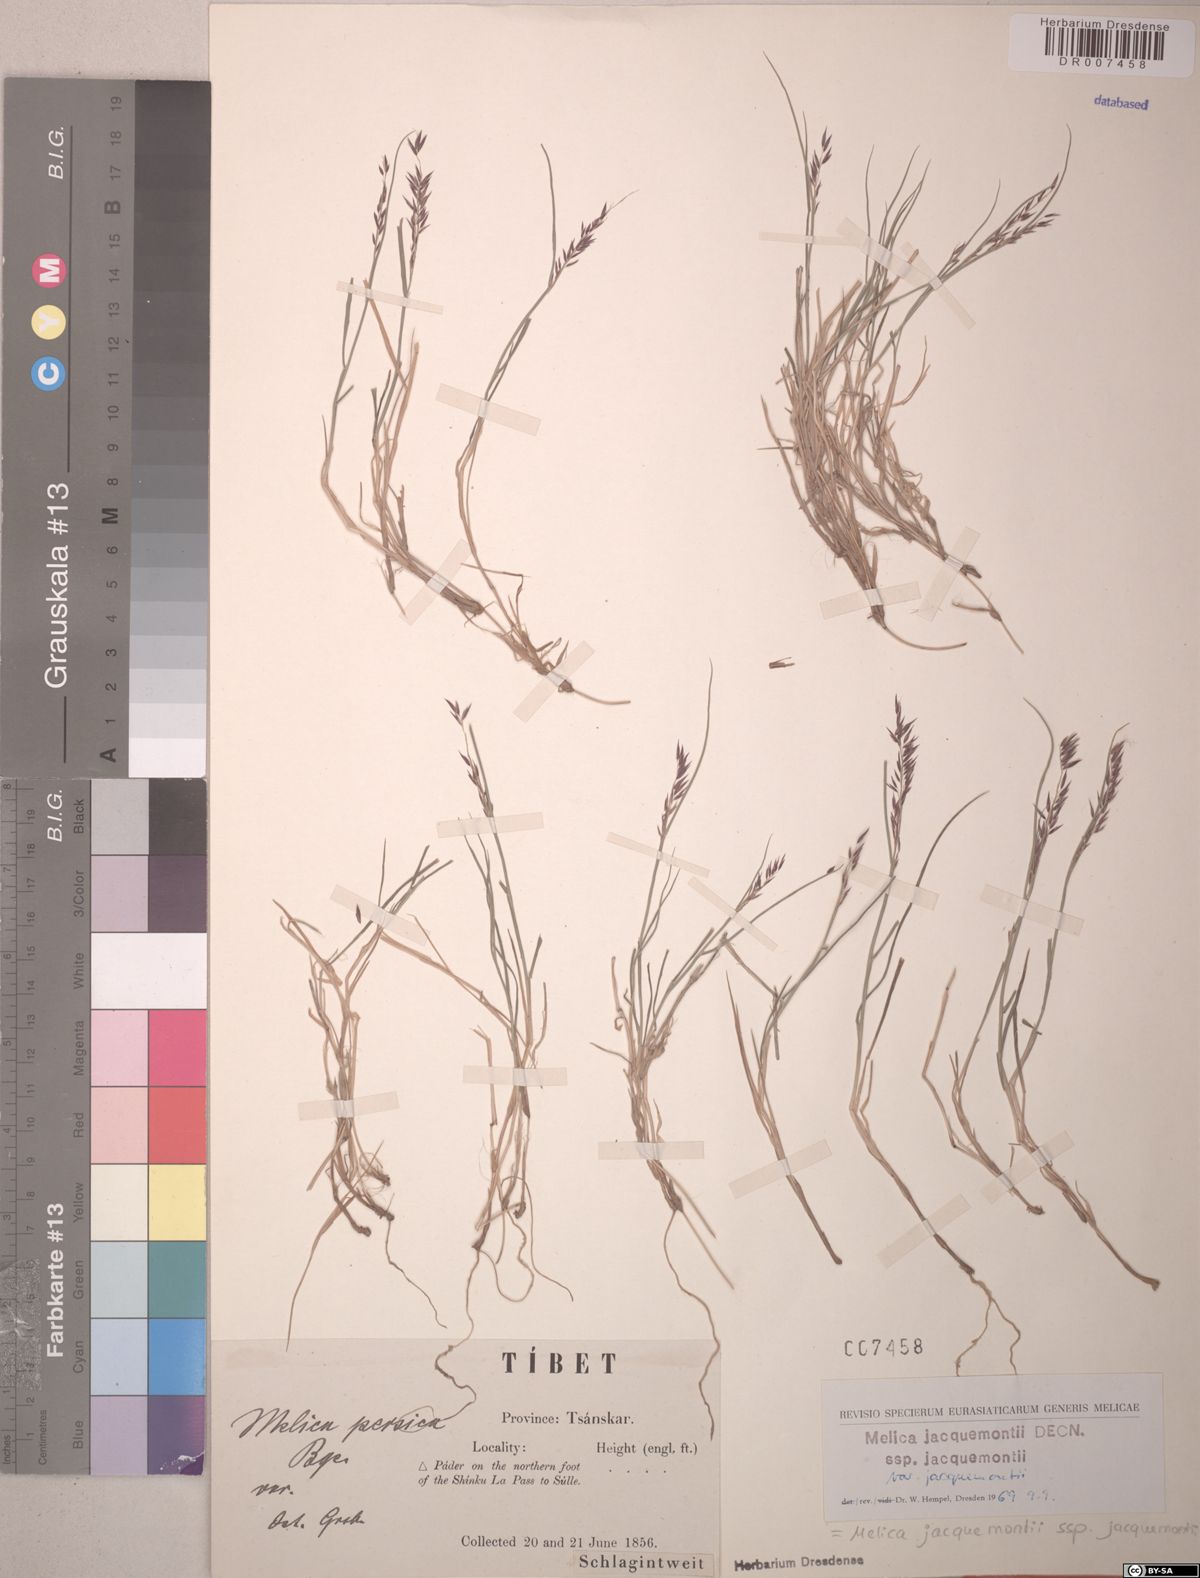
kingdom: Plantae
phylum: Tracheophyta
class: Liliopsida
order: Poales
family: Poaceae
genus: Melica
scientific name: Melica persica
